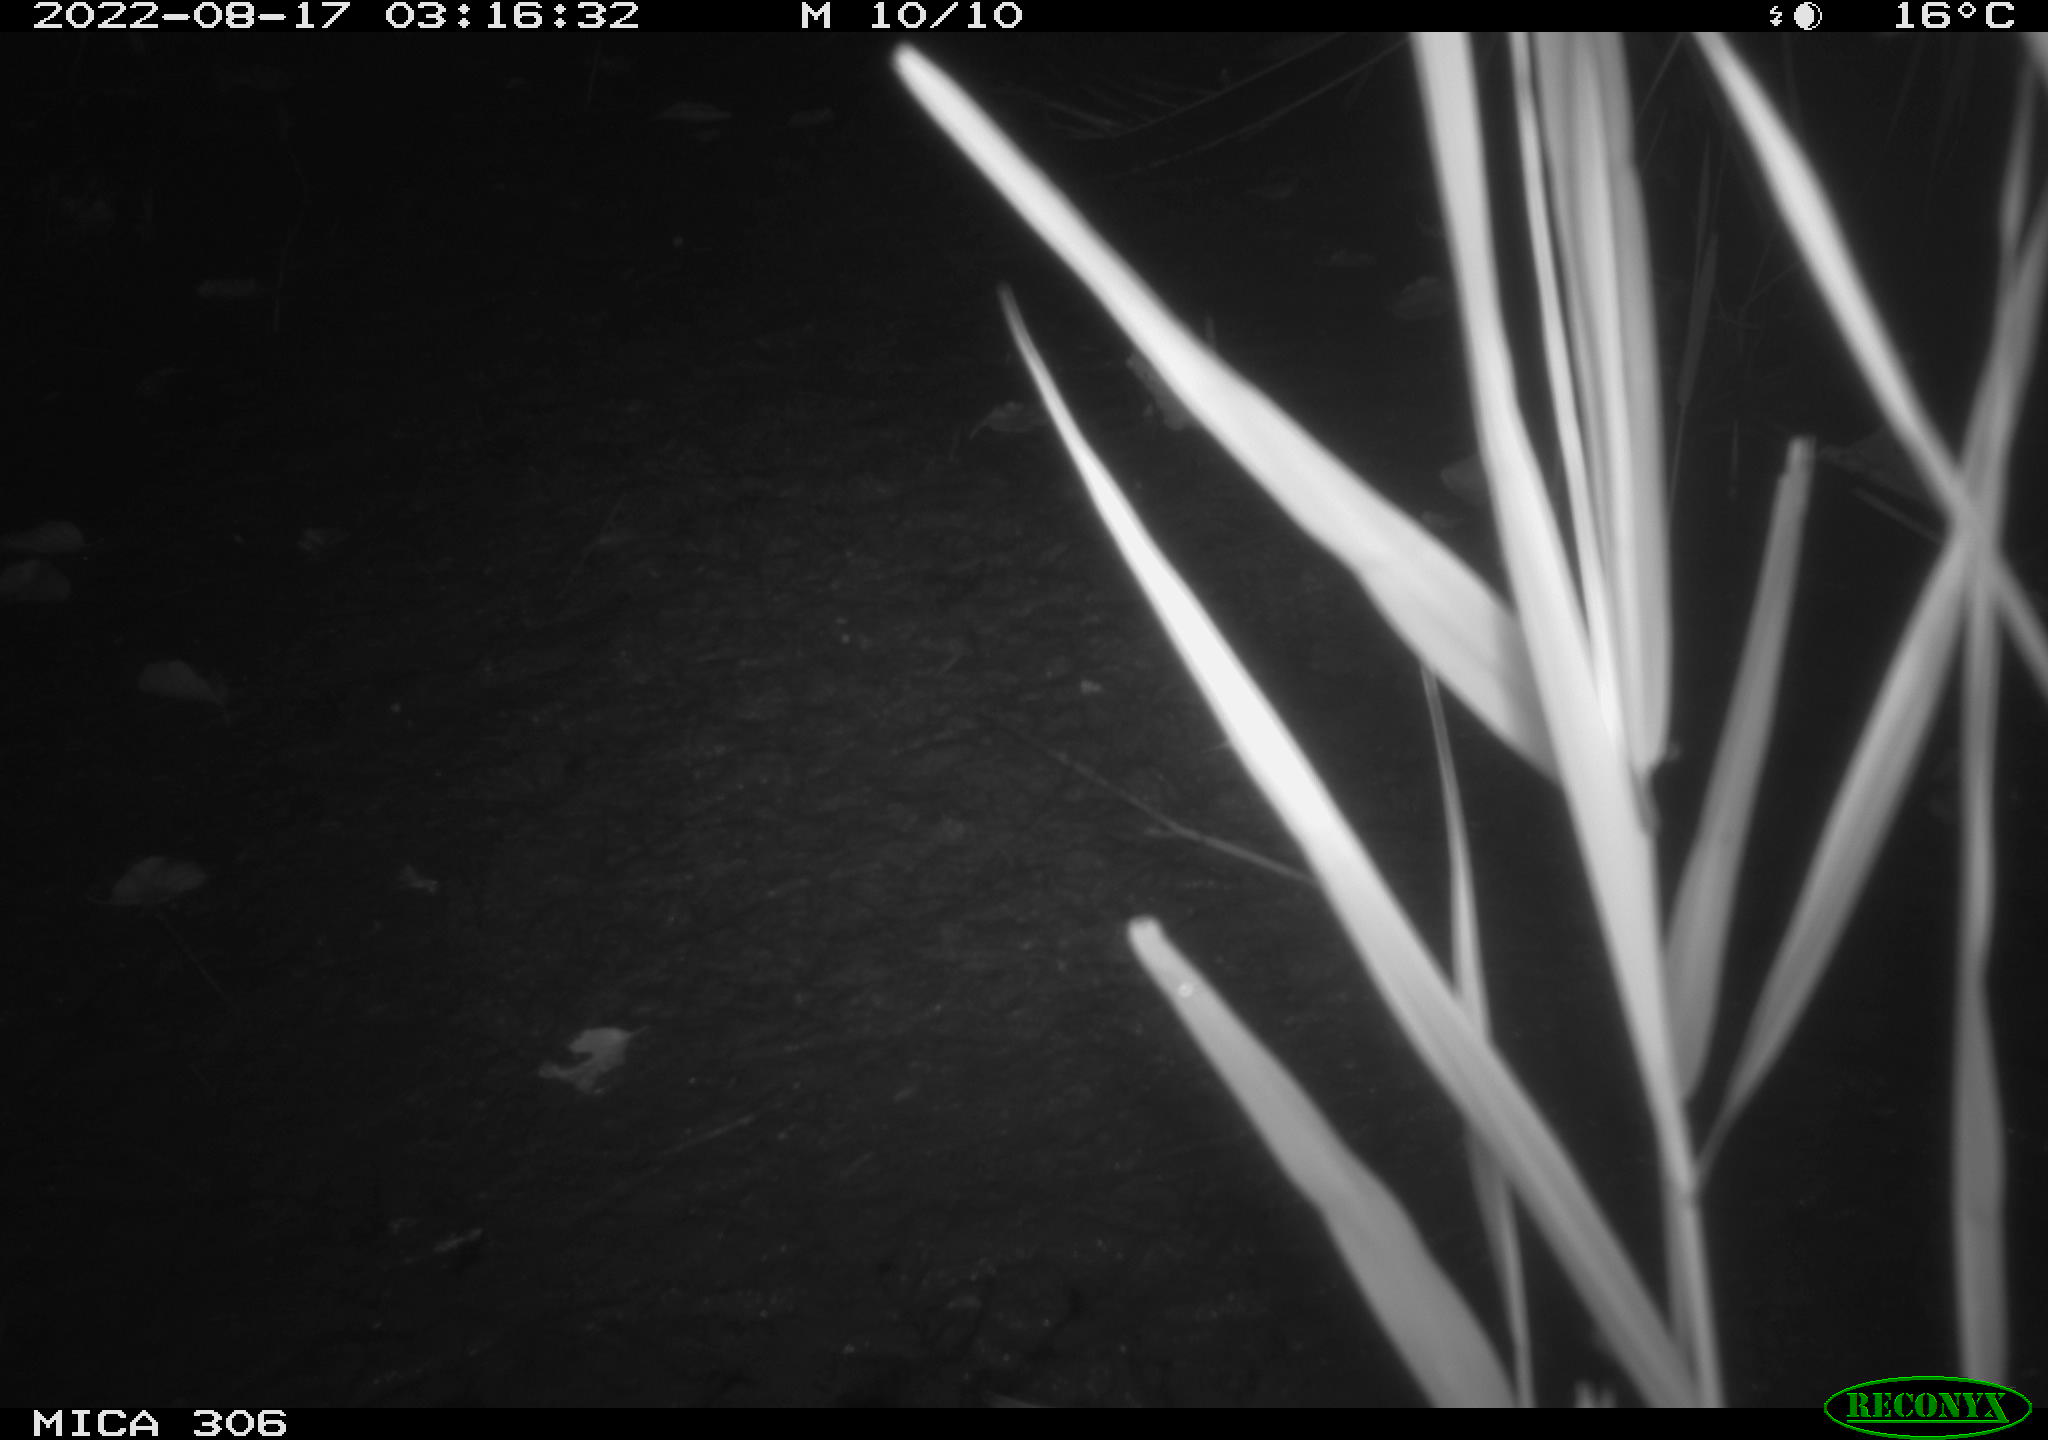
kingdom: Animalia
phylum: Chordata
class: Mammalia
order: Rodentia
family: Muridae
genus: Rattus
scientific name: Rattus norvegicus
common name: Brown rat
